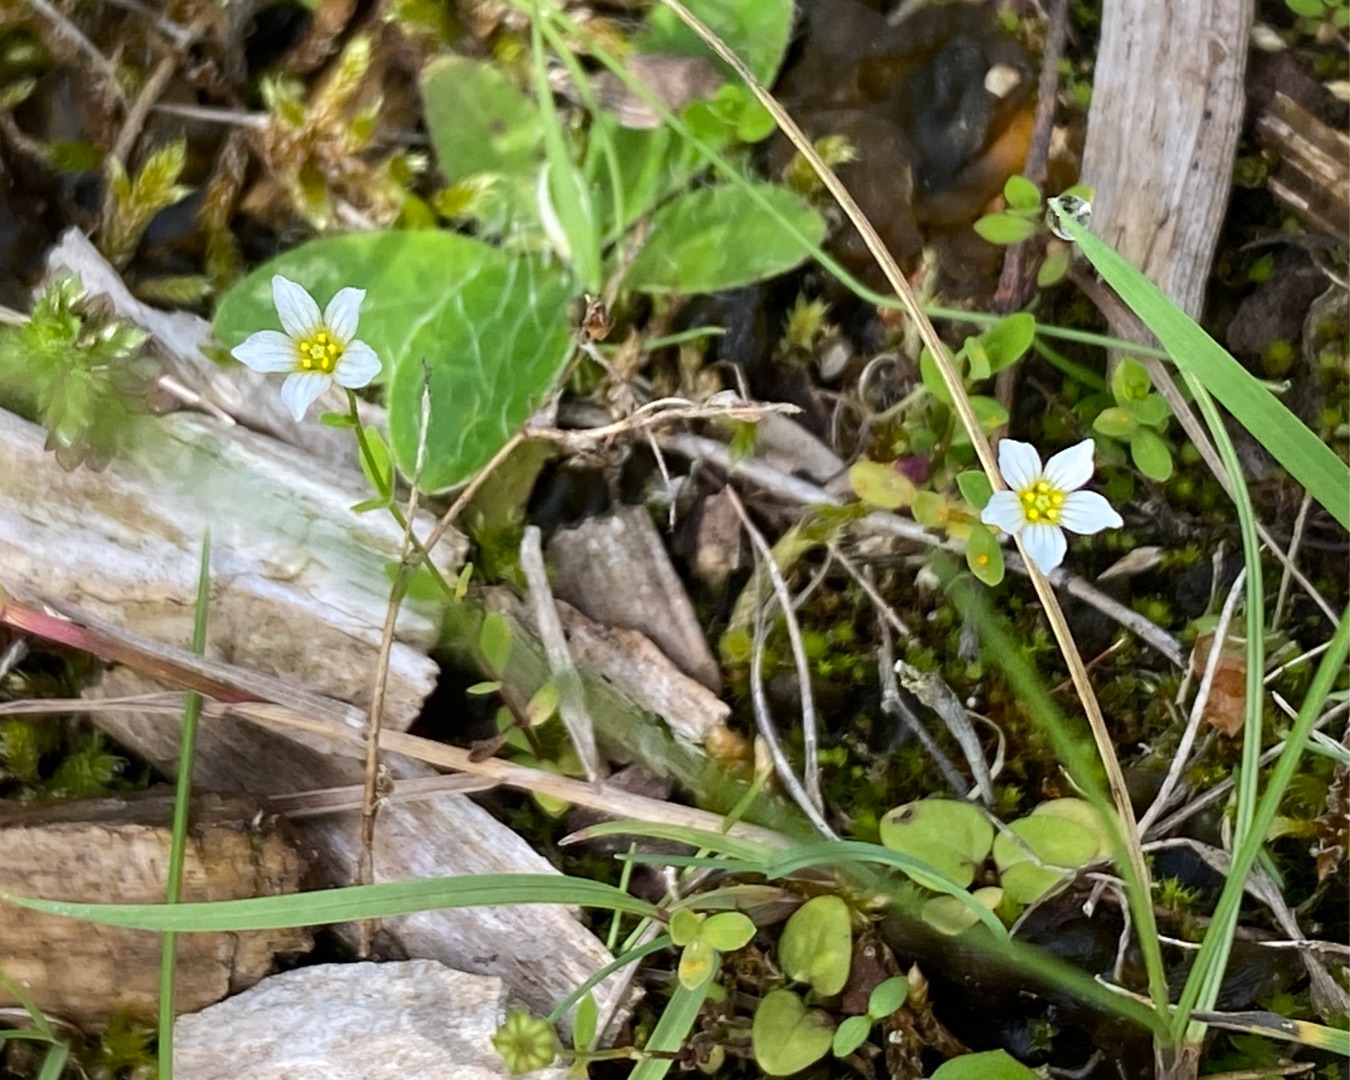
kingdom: Plantae
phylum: Tracheophyta
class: Magnoliopsida
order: Malpighiales
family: Linaceae
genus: Linum
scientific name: Linum catharticum
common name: Vild hør
